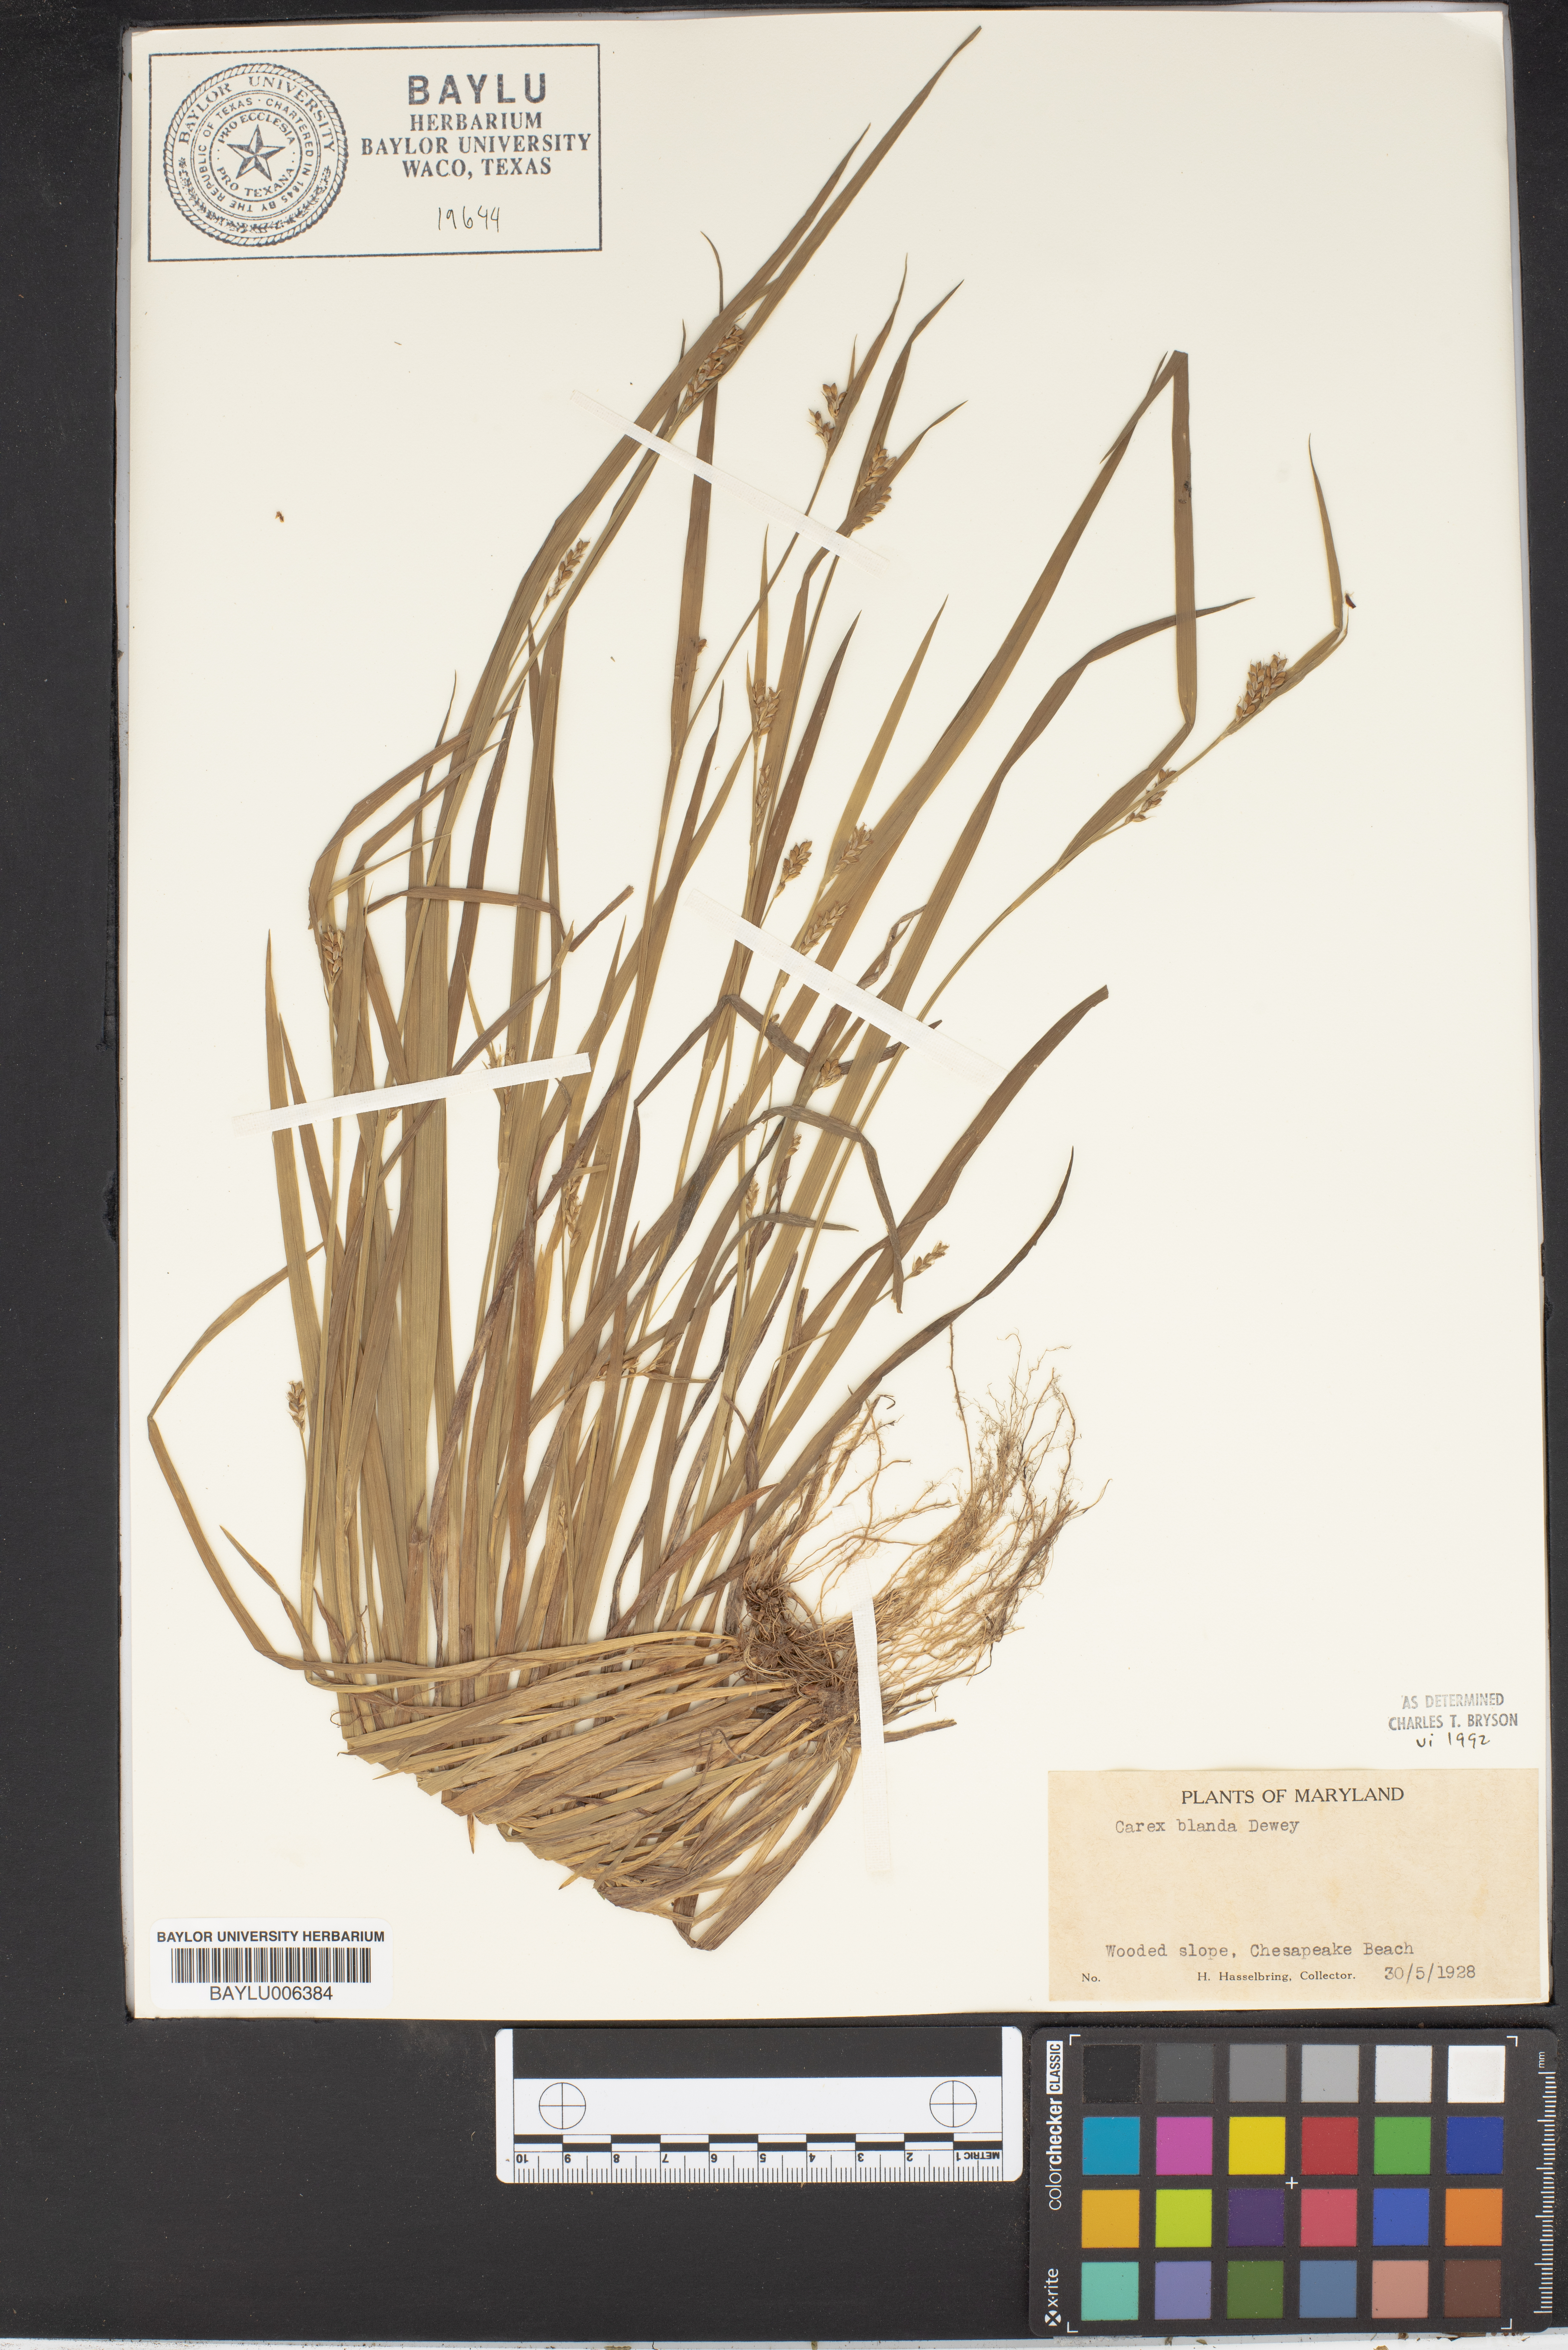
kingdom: Plantae
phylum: Tracheophyta
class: Liliopsida
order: Poales
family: Cyperaceae
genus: Carex
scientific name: Carex blanda
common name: Bland sedge
